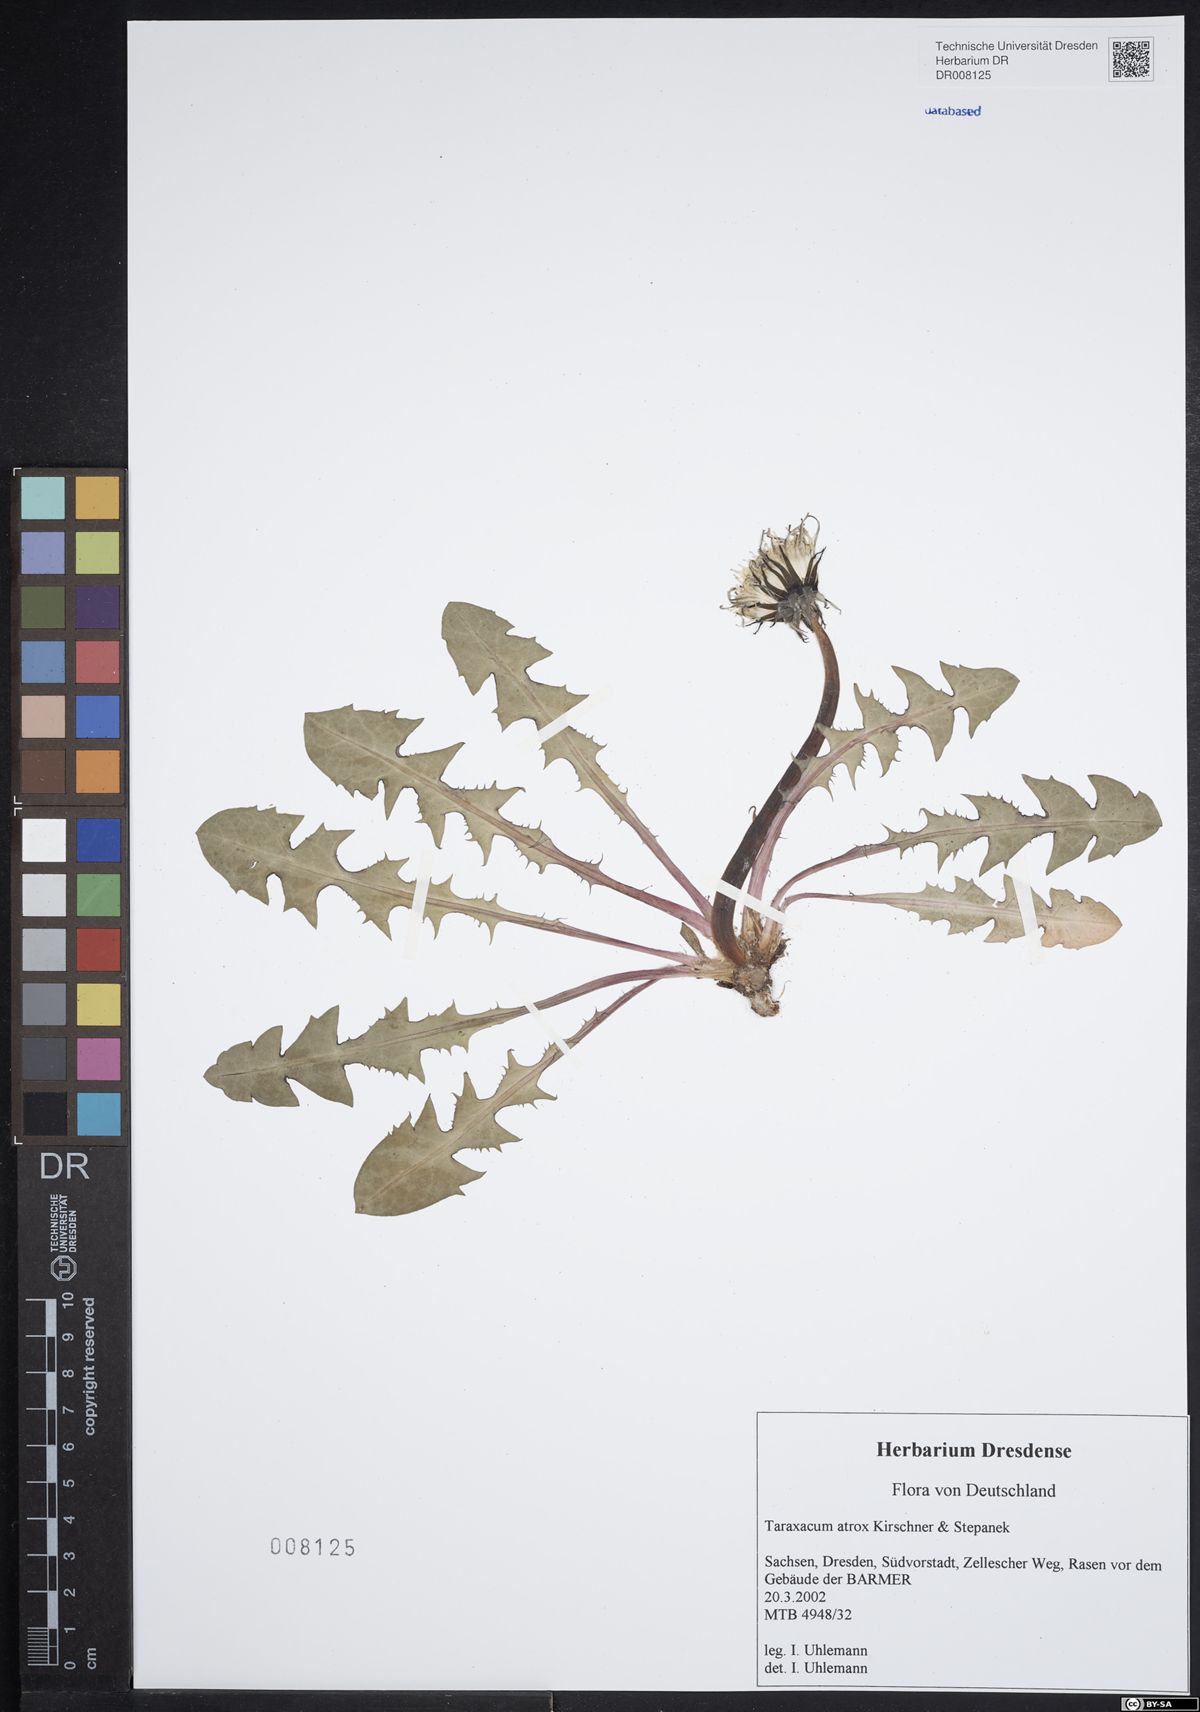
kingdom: Plantae
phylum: Tracheophyta
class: Magnoliopsida
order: Asterales
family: Asteraceae
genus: Taraxacum
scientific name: Taraxacum atrox
